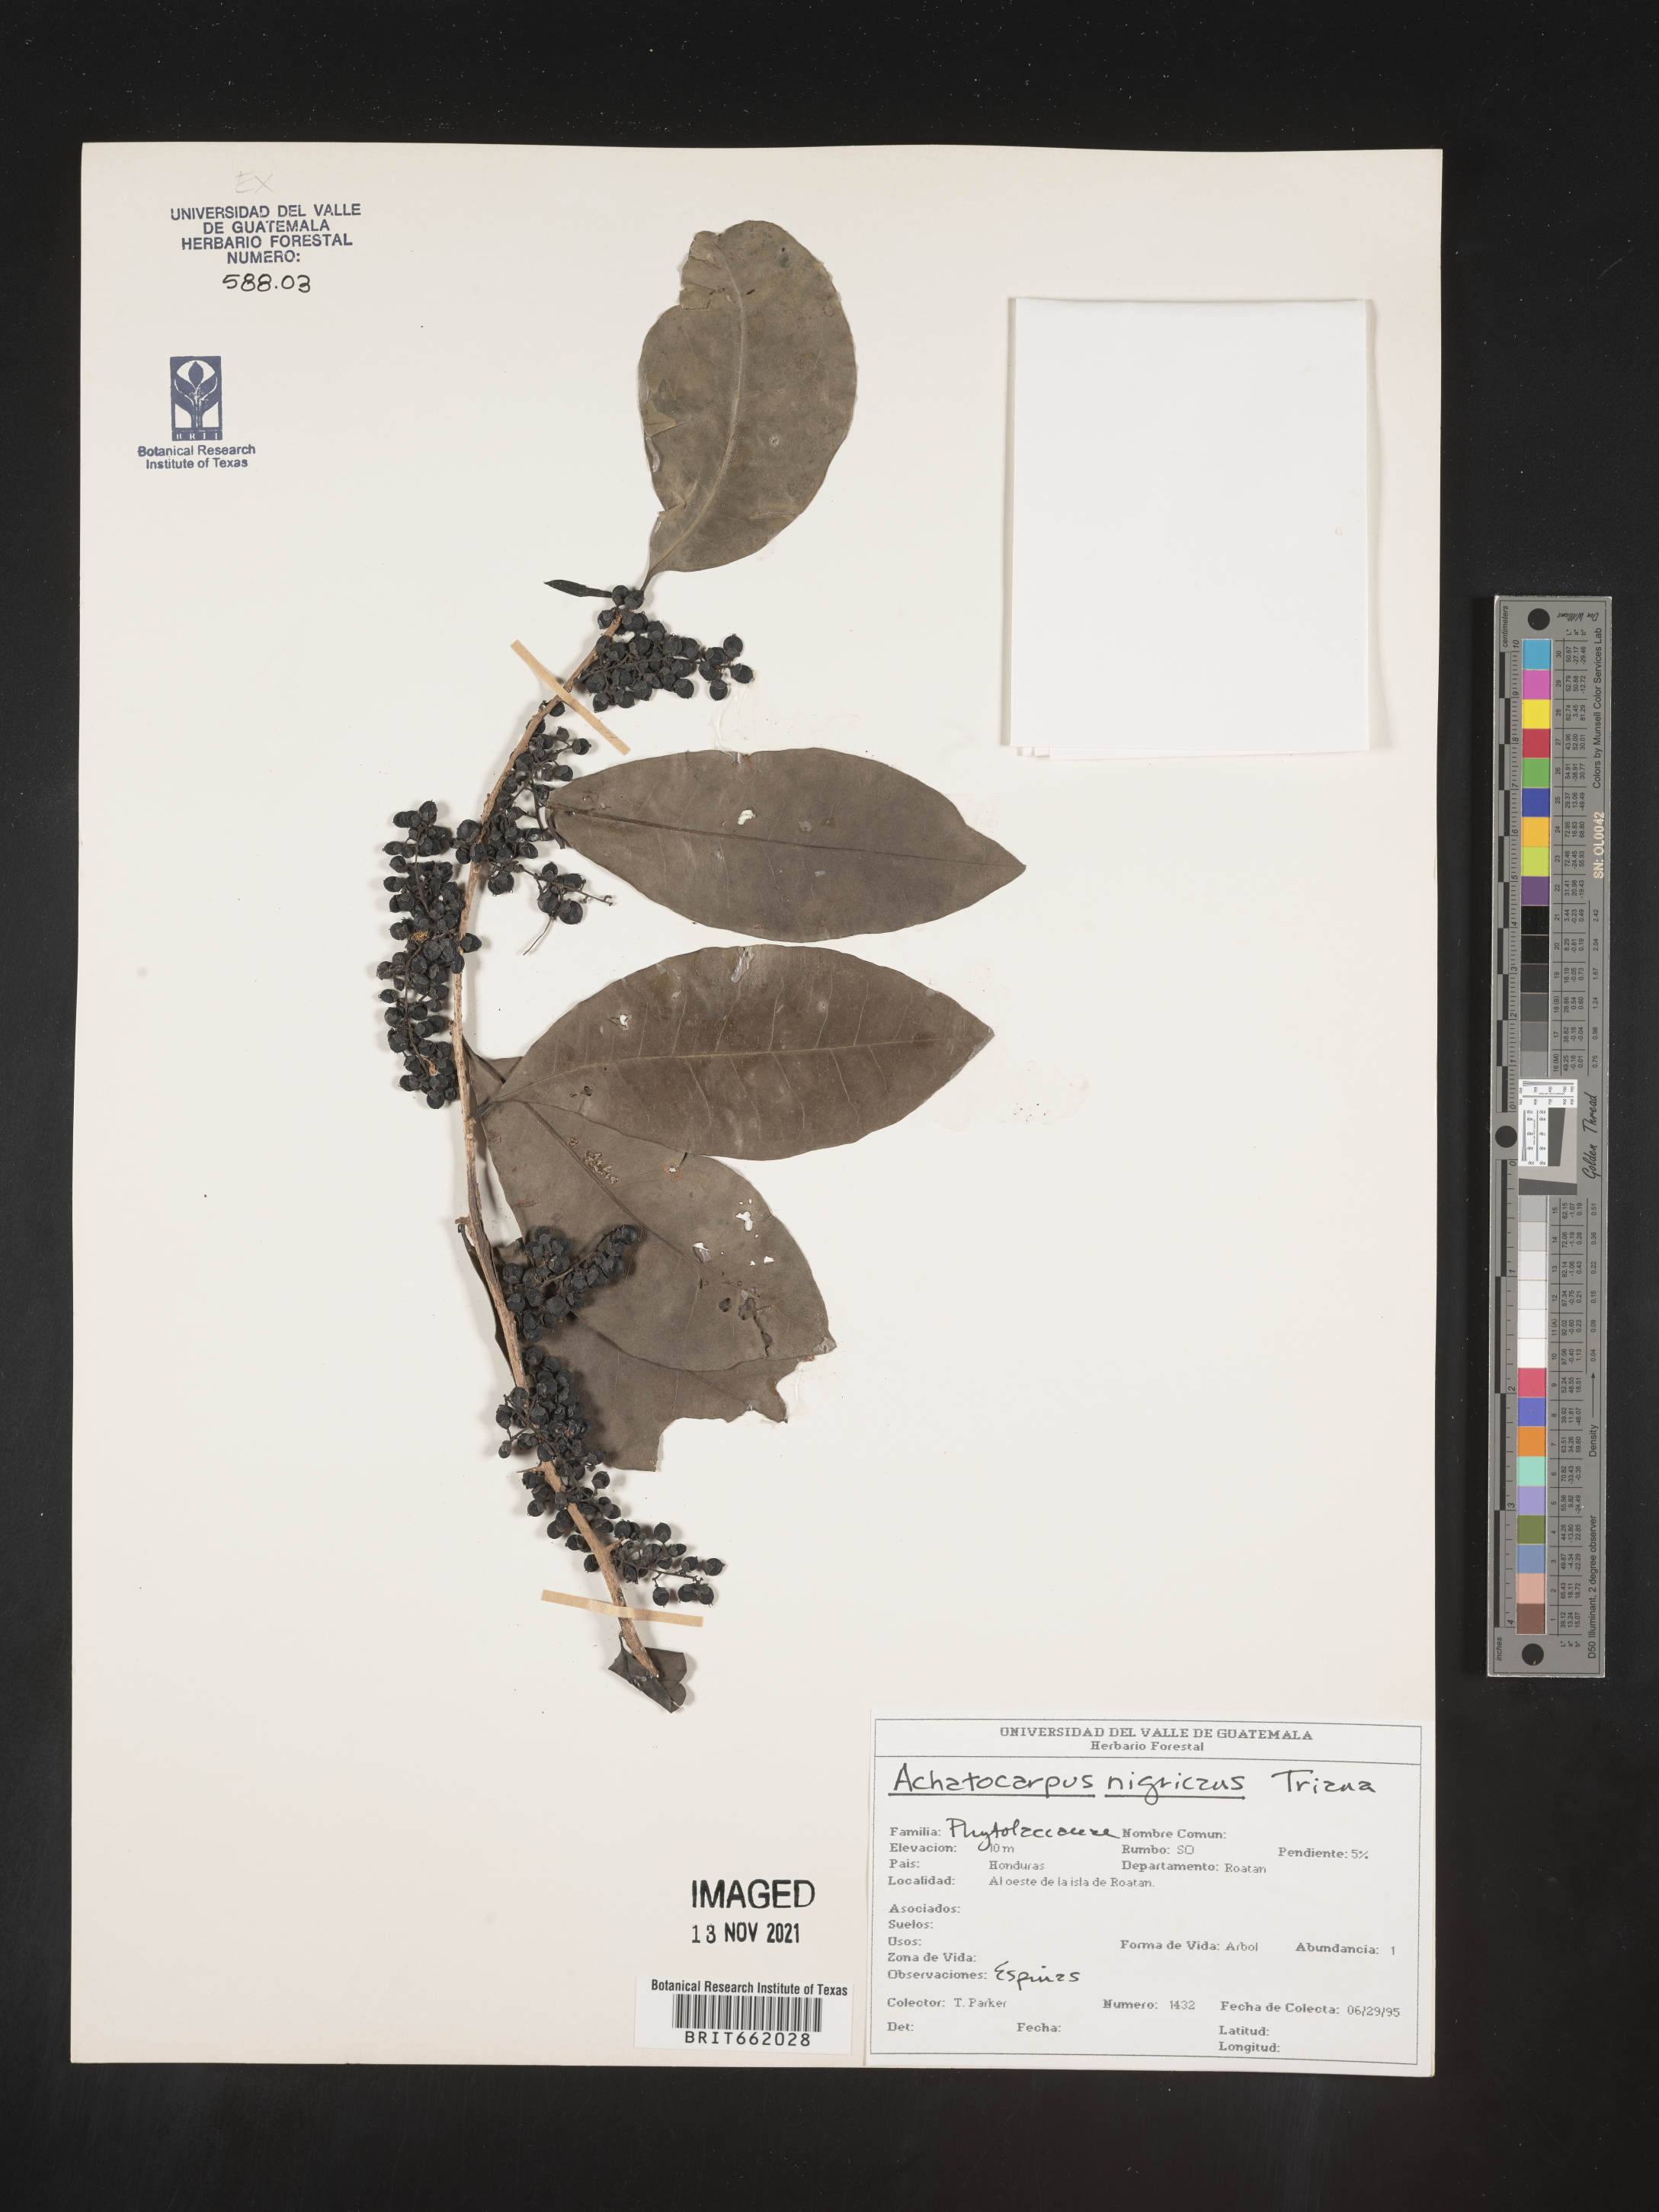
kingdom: Plantae
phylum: Tracheophyta
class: Magnoliopsida
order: Caryophyllales
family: Achatocarpaceae
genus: Achatocarpus
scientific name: Achatocarpus
